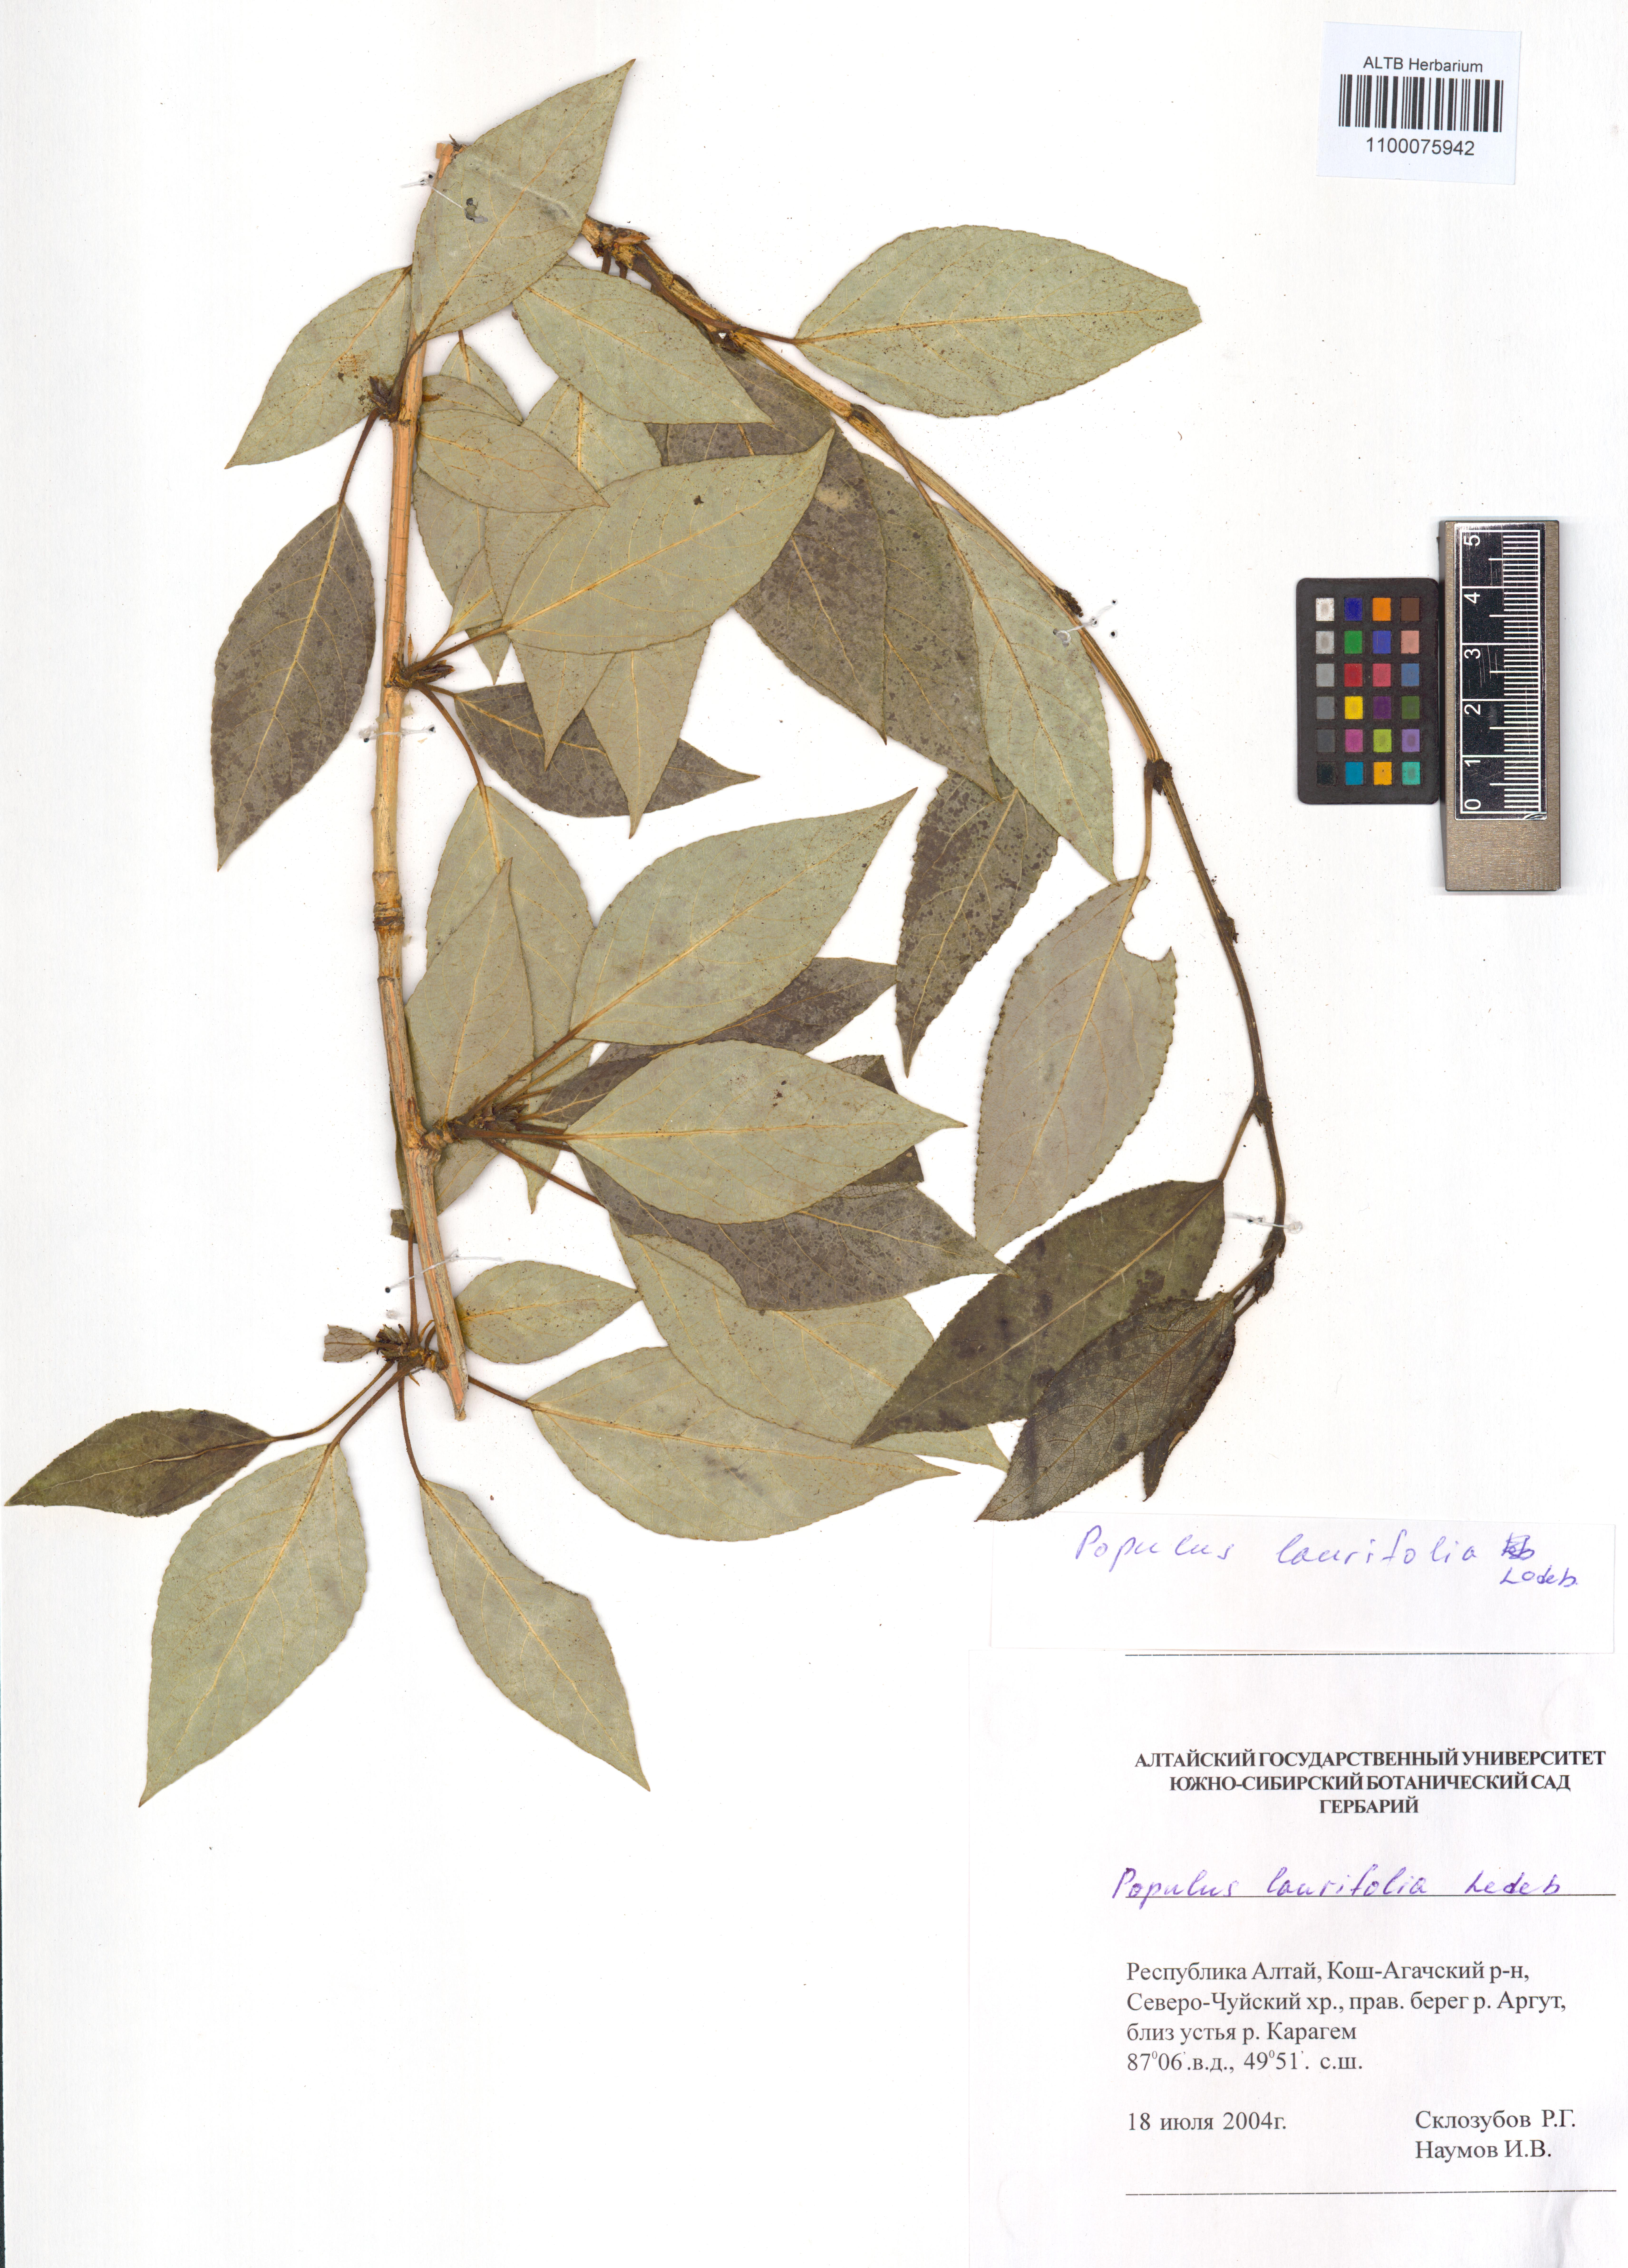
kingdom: Plantae
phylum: Tracheophyta
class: Magnoliopsida
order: Malpighiales
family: Salicaceae
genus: Populus
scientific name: Populus laurifolia
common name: Laurel-leaf poplar
